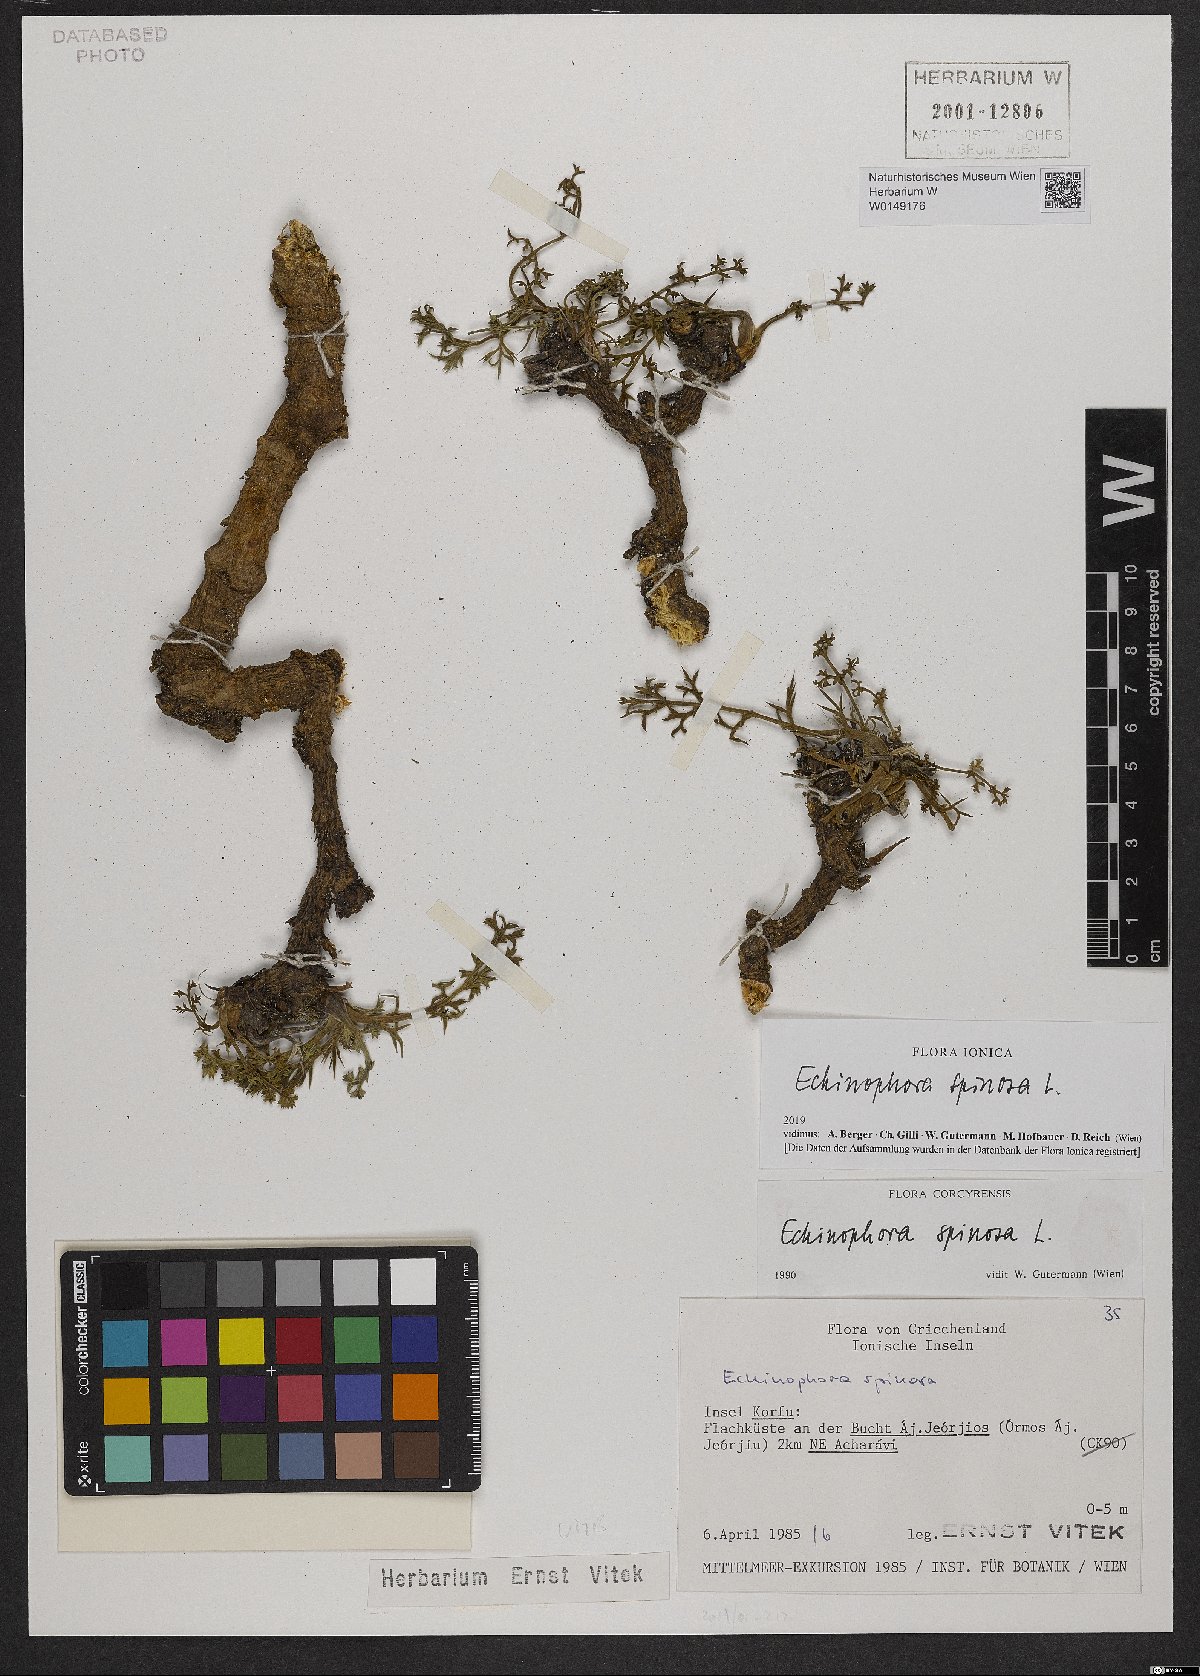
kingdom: Plantae
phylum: Tracheophyta
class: Magnoliopsida
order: Apiales
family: Apiaceae
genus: Echinophora
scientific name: Echinophora spinosa
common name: Prickly samphire
